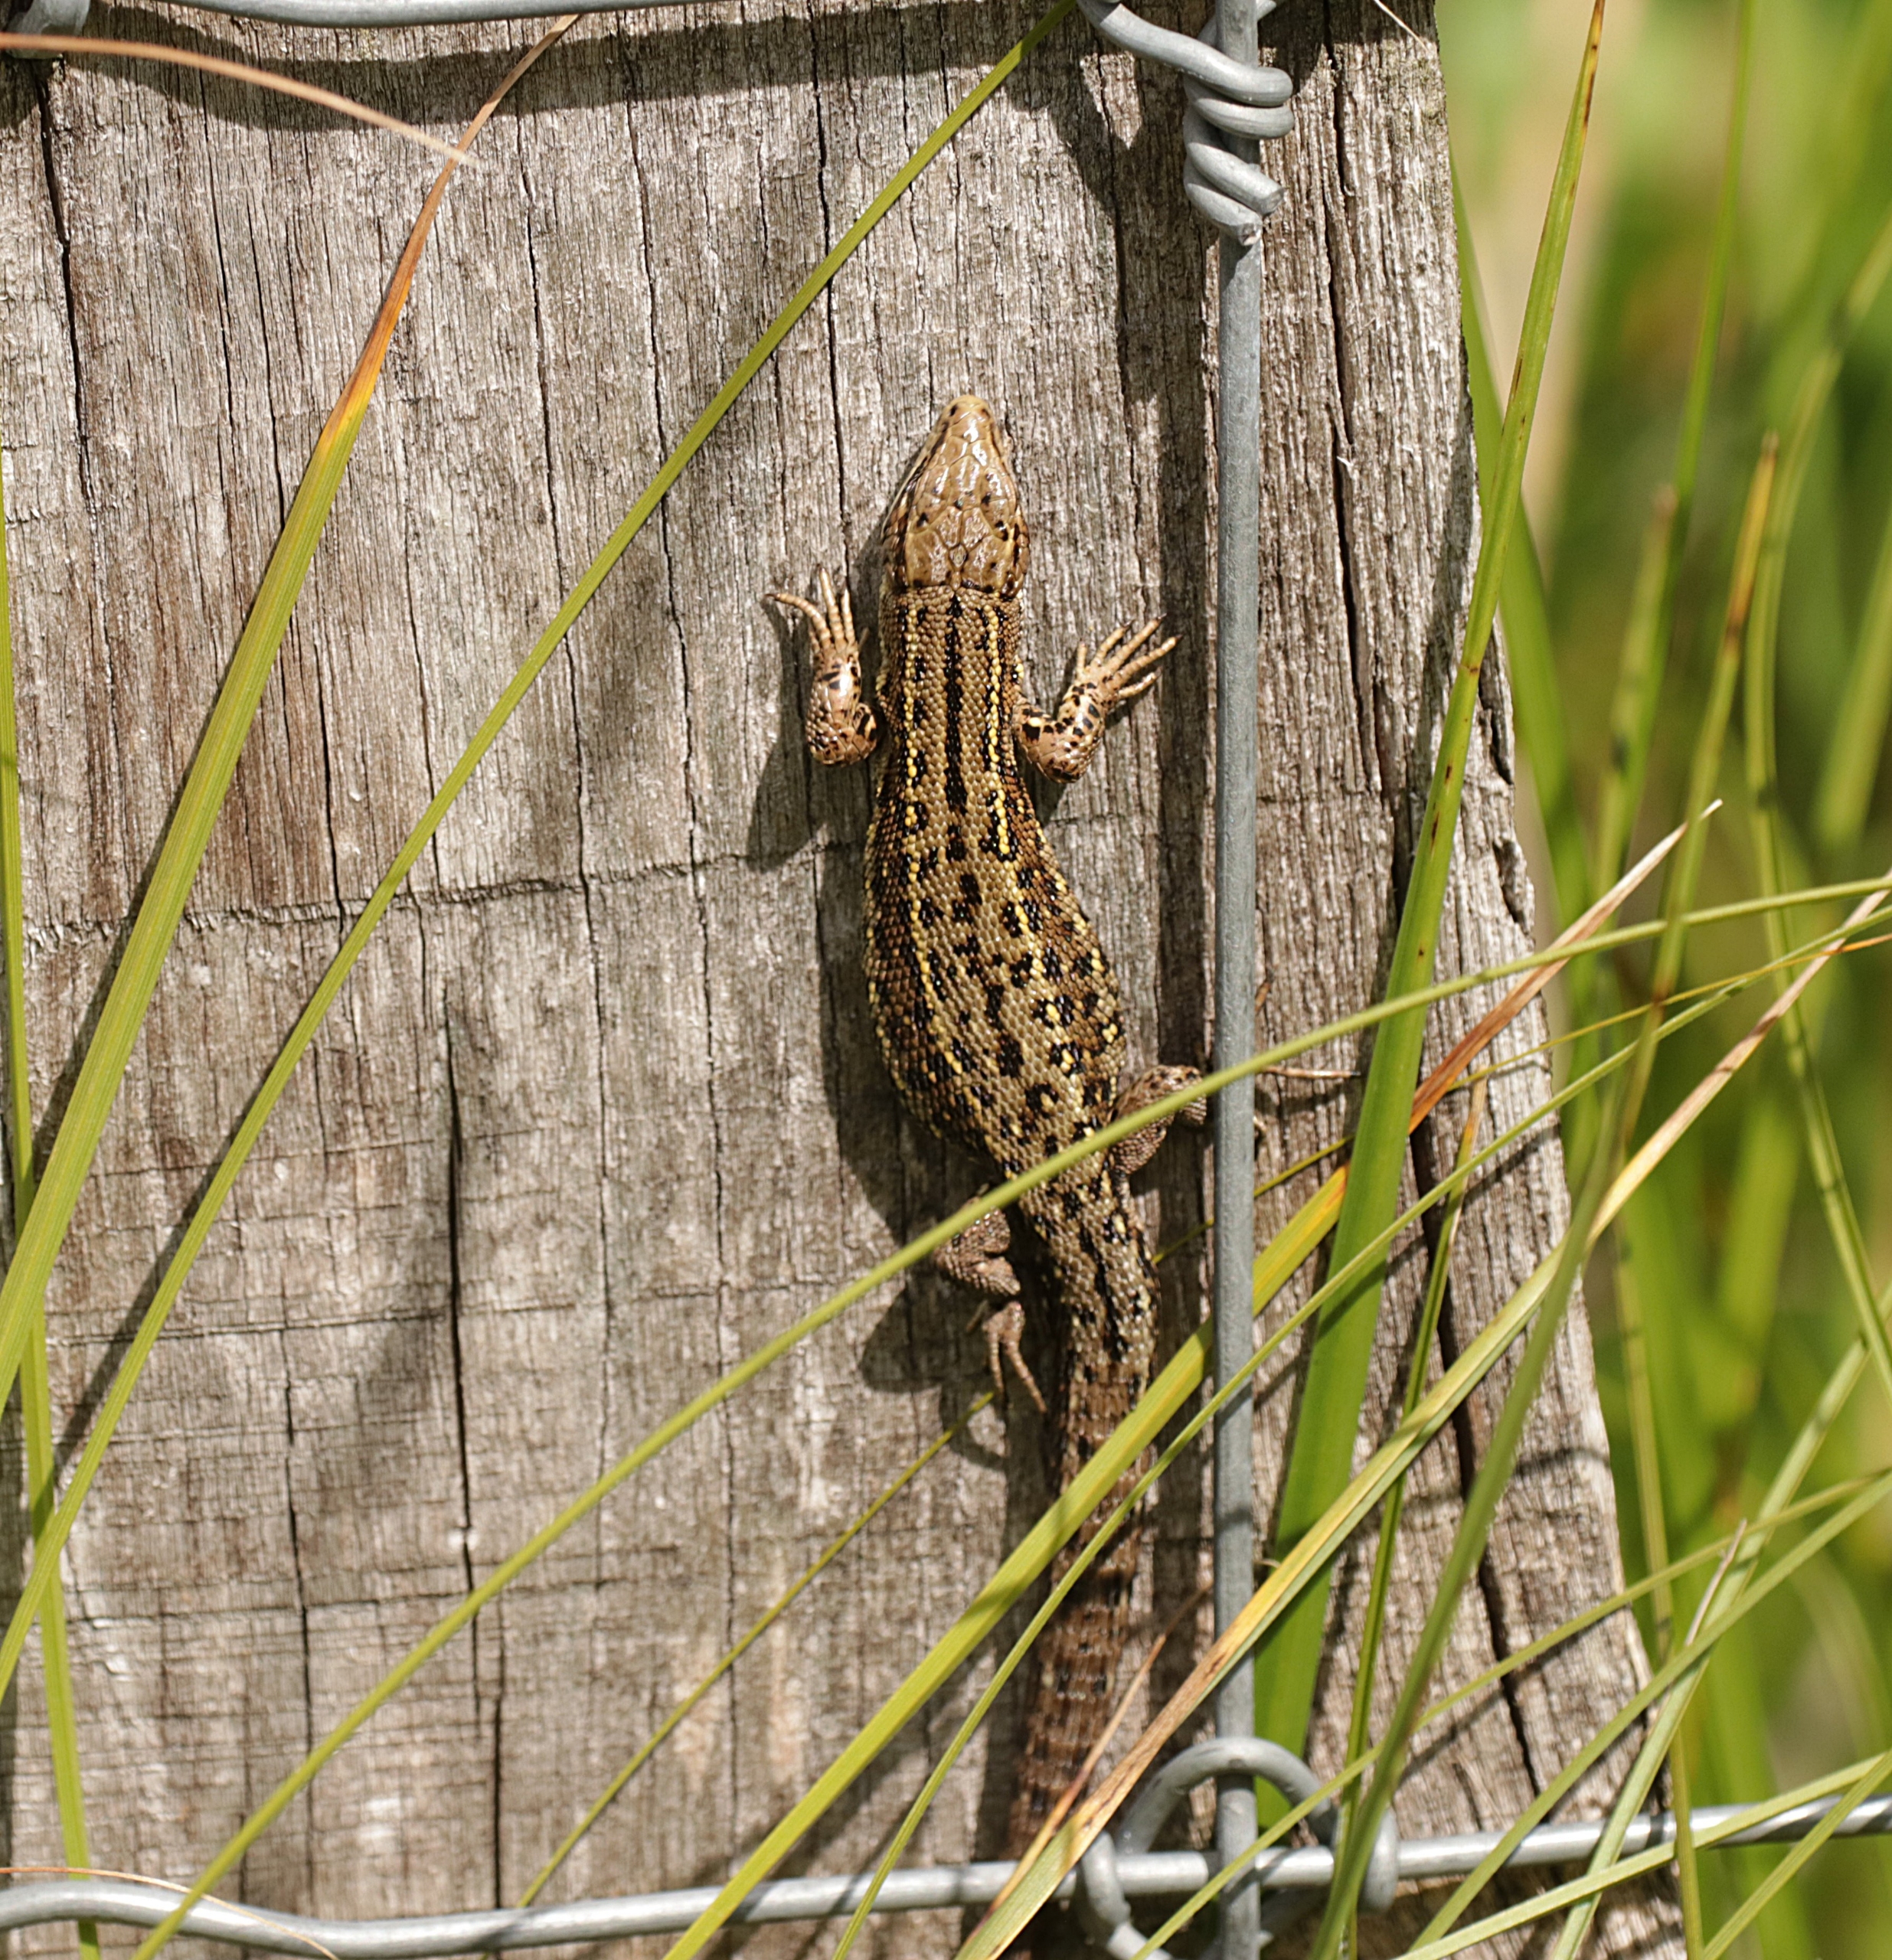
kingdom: Animalia
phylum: Chordata
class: Squamata
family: Lacertidae
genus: Zootoca
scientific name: Zootoca vivipara
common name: Skovfirben
